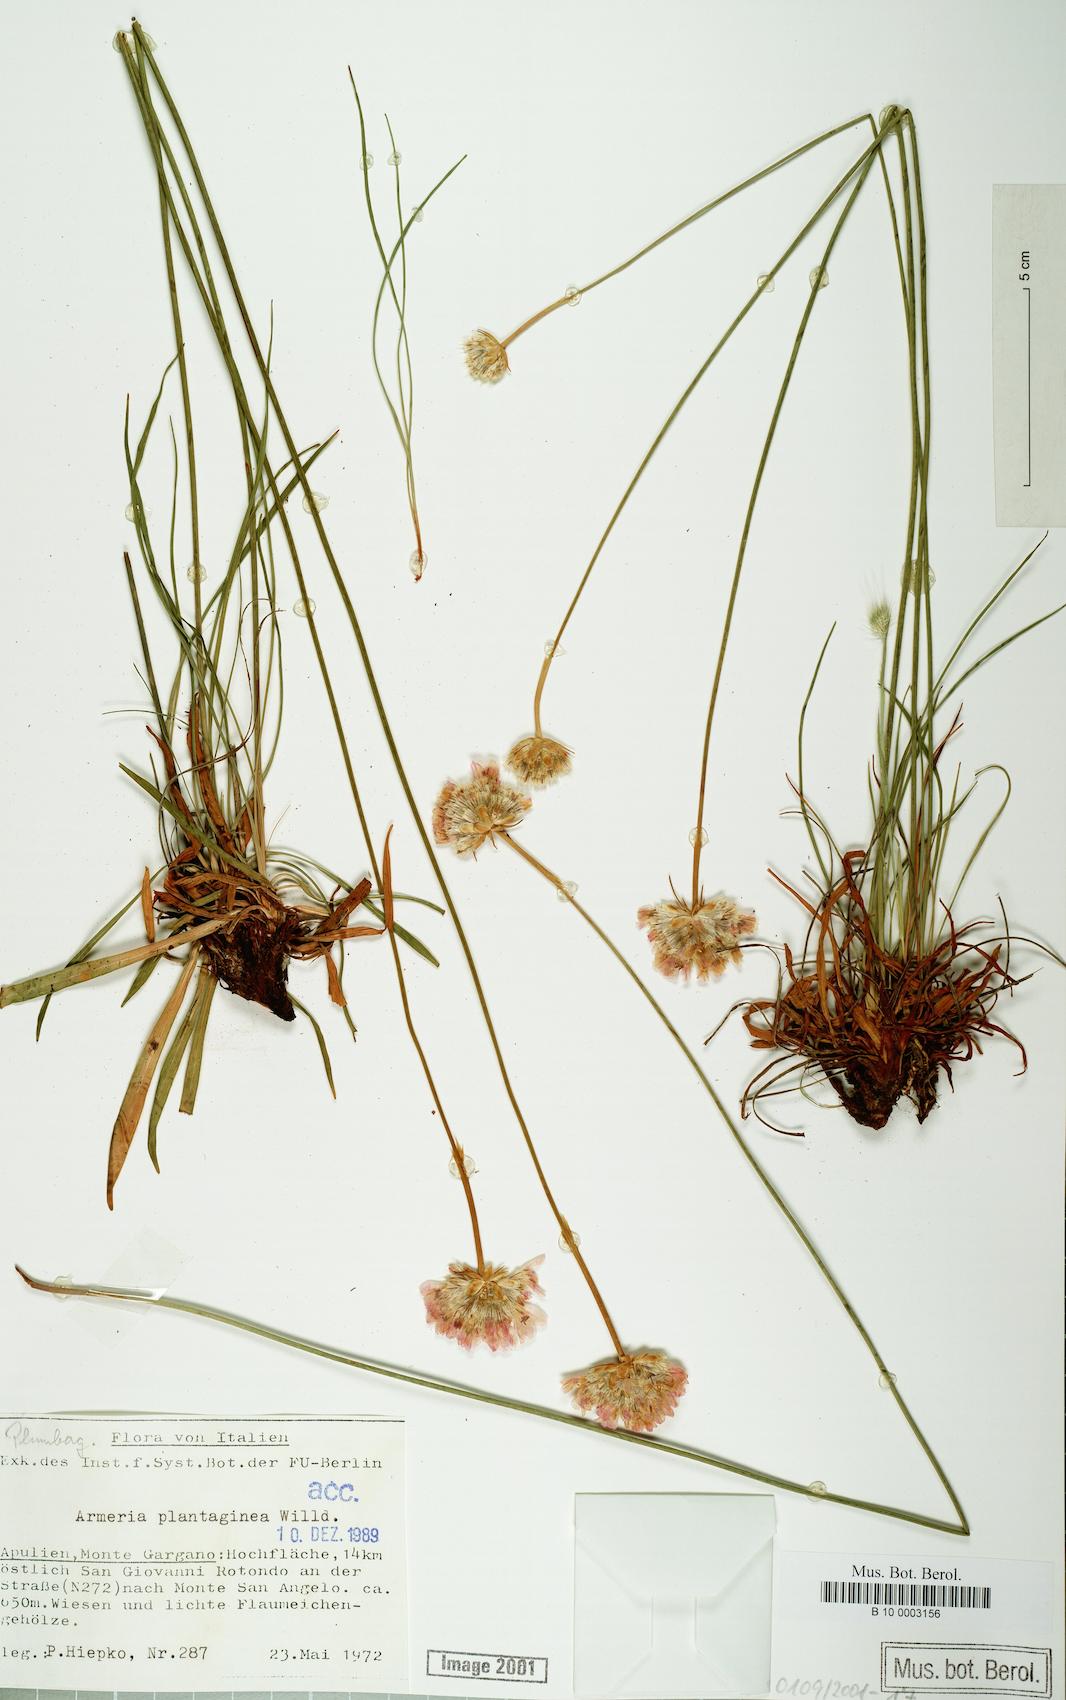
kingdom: Plantae
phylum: Tracheophyta
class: Magnoliopsida
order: Caryophyllales
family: Plumbaginaceae
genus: Armeria
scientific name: Armeria arenaria
